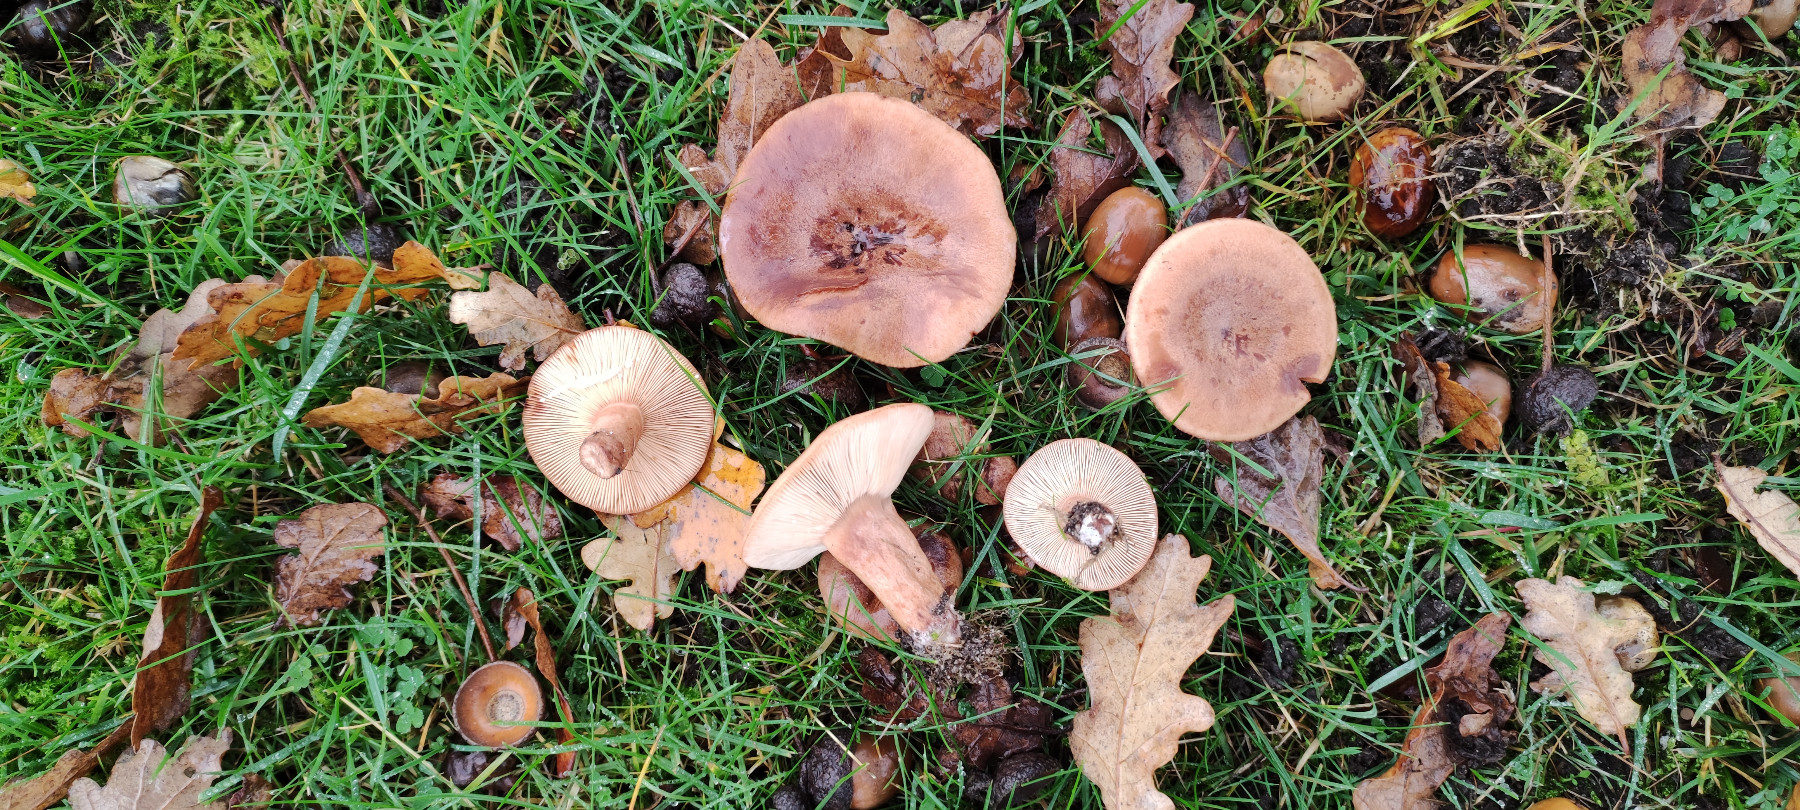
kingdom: Fungi
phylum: Basidiomycota
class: Agaricomycetes
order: Russulales
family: Russulaceae
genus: Lactarius
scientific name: Lactarius quietus
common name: ege-mælkehat
